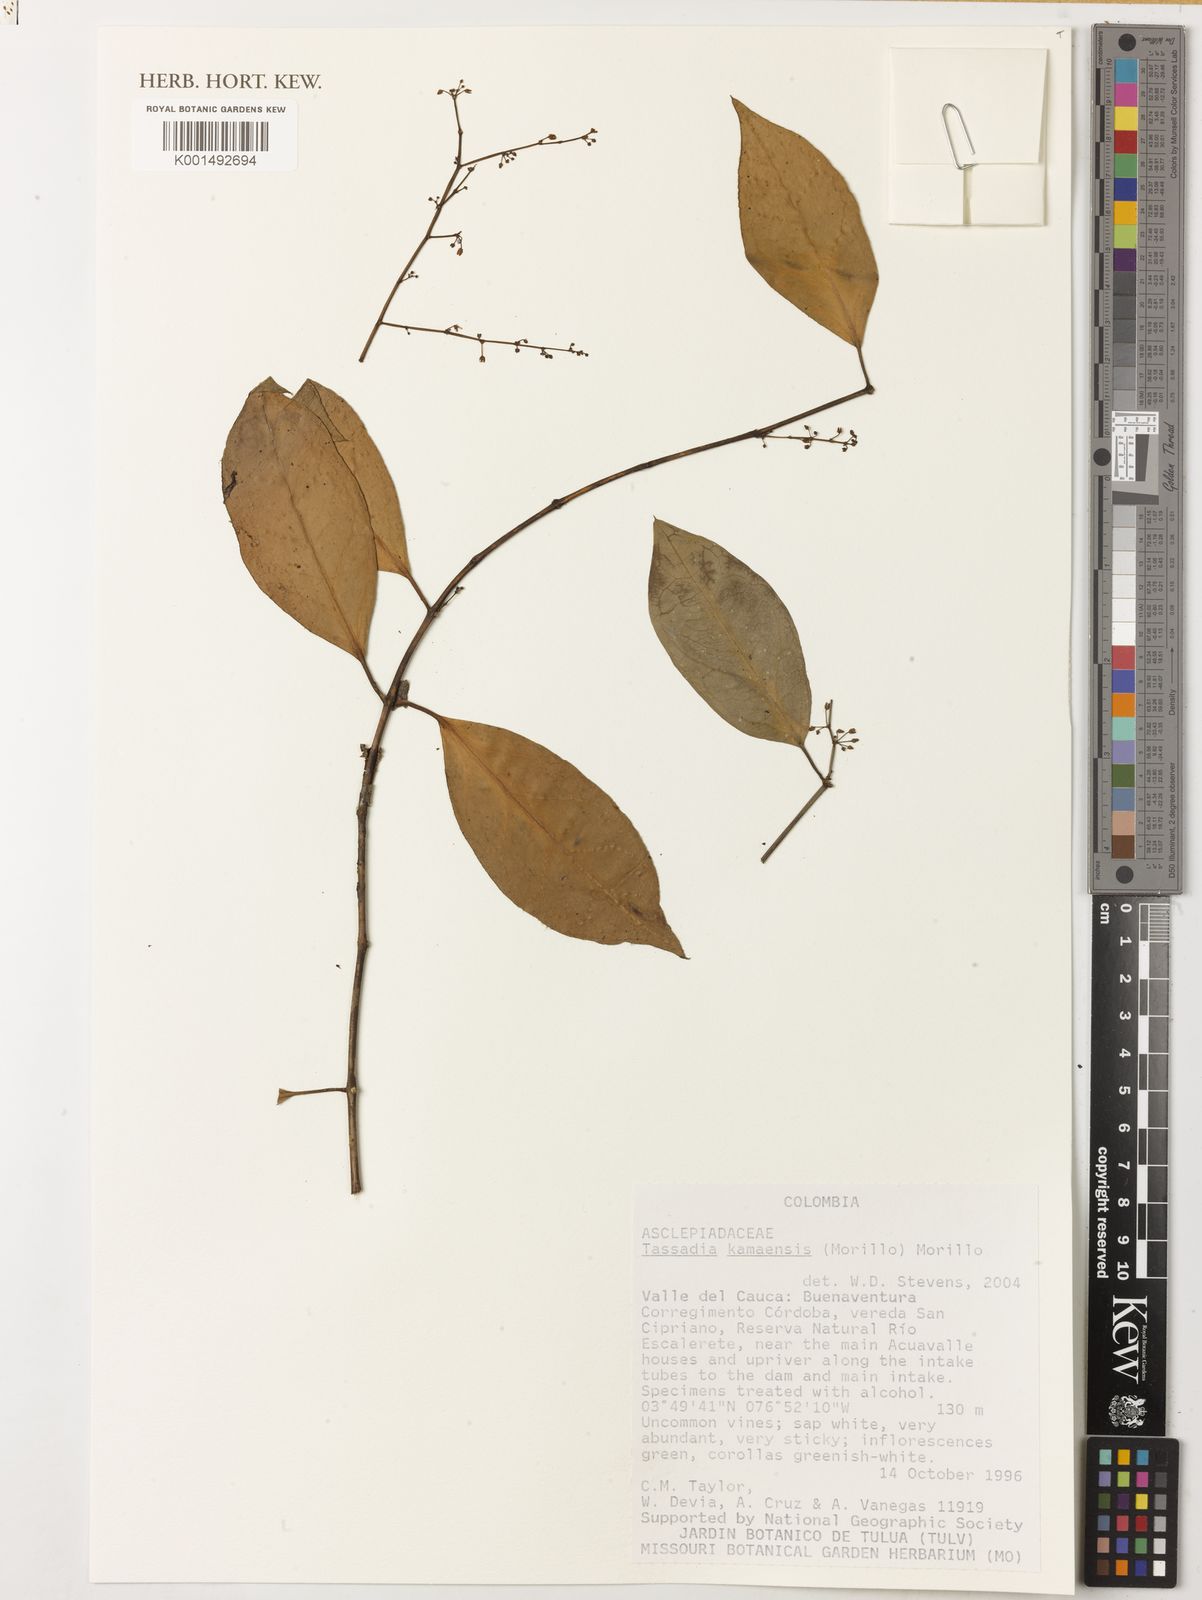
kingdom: Plantae
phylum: Tracheophyta
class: Magnoliopsida
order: Gentianales
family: Apocynaceae
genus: Tassadia
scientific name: Tassadia kamaensis
